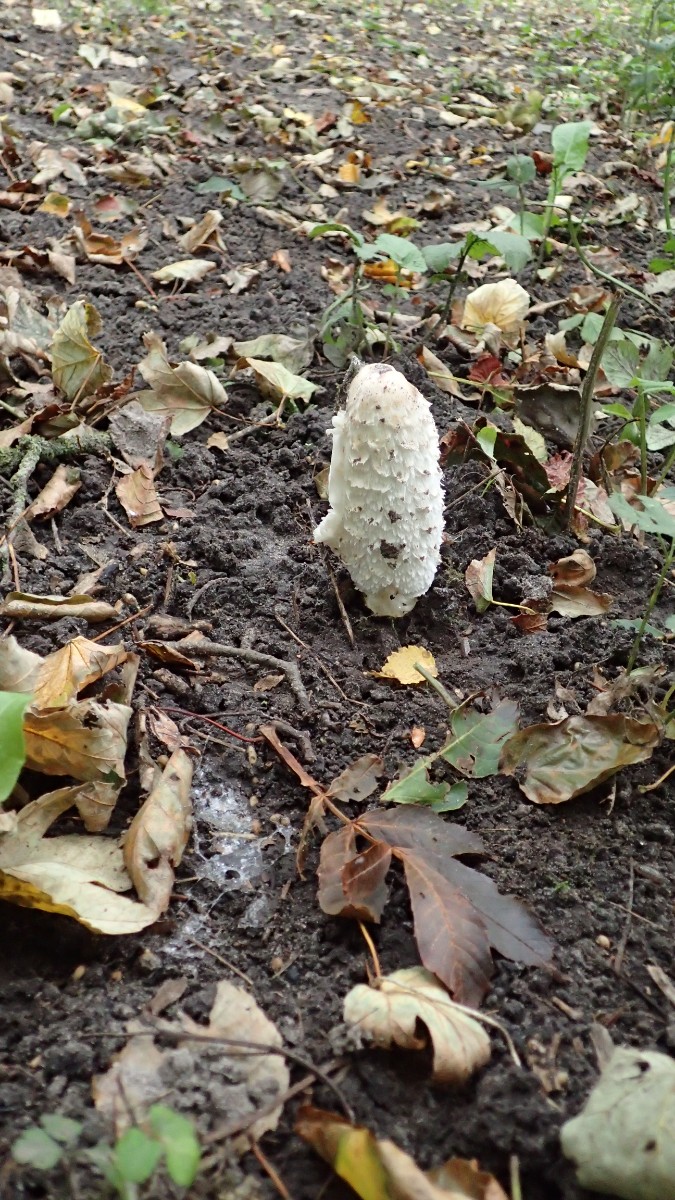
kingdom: Fungi
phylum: Basidiomycota
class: Agaricomycetes
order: Agaricales
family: Agaricaceae
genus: Coprinus
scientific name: Coprinus comatus
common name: stor parykhat
